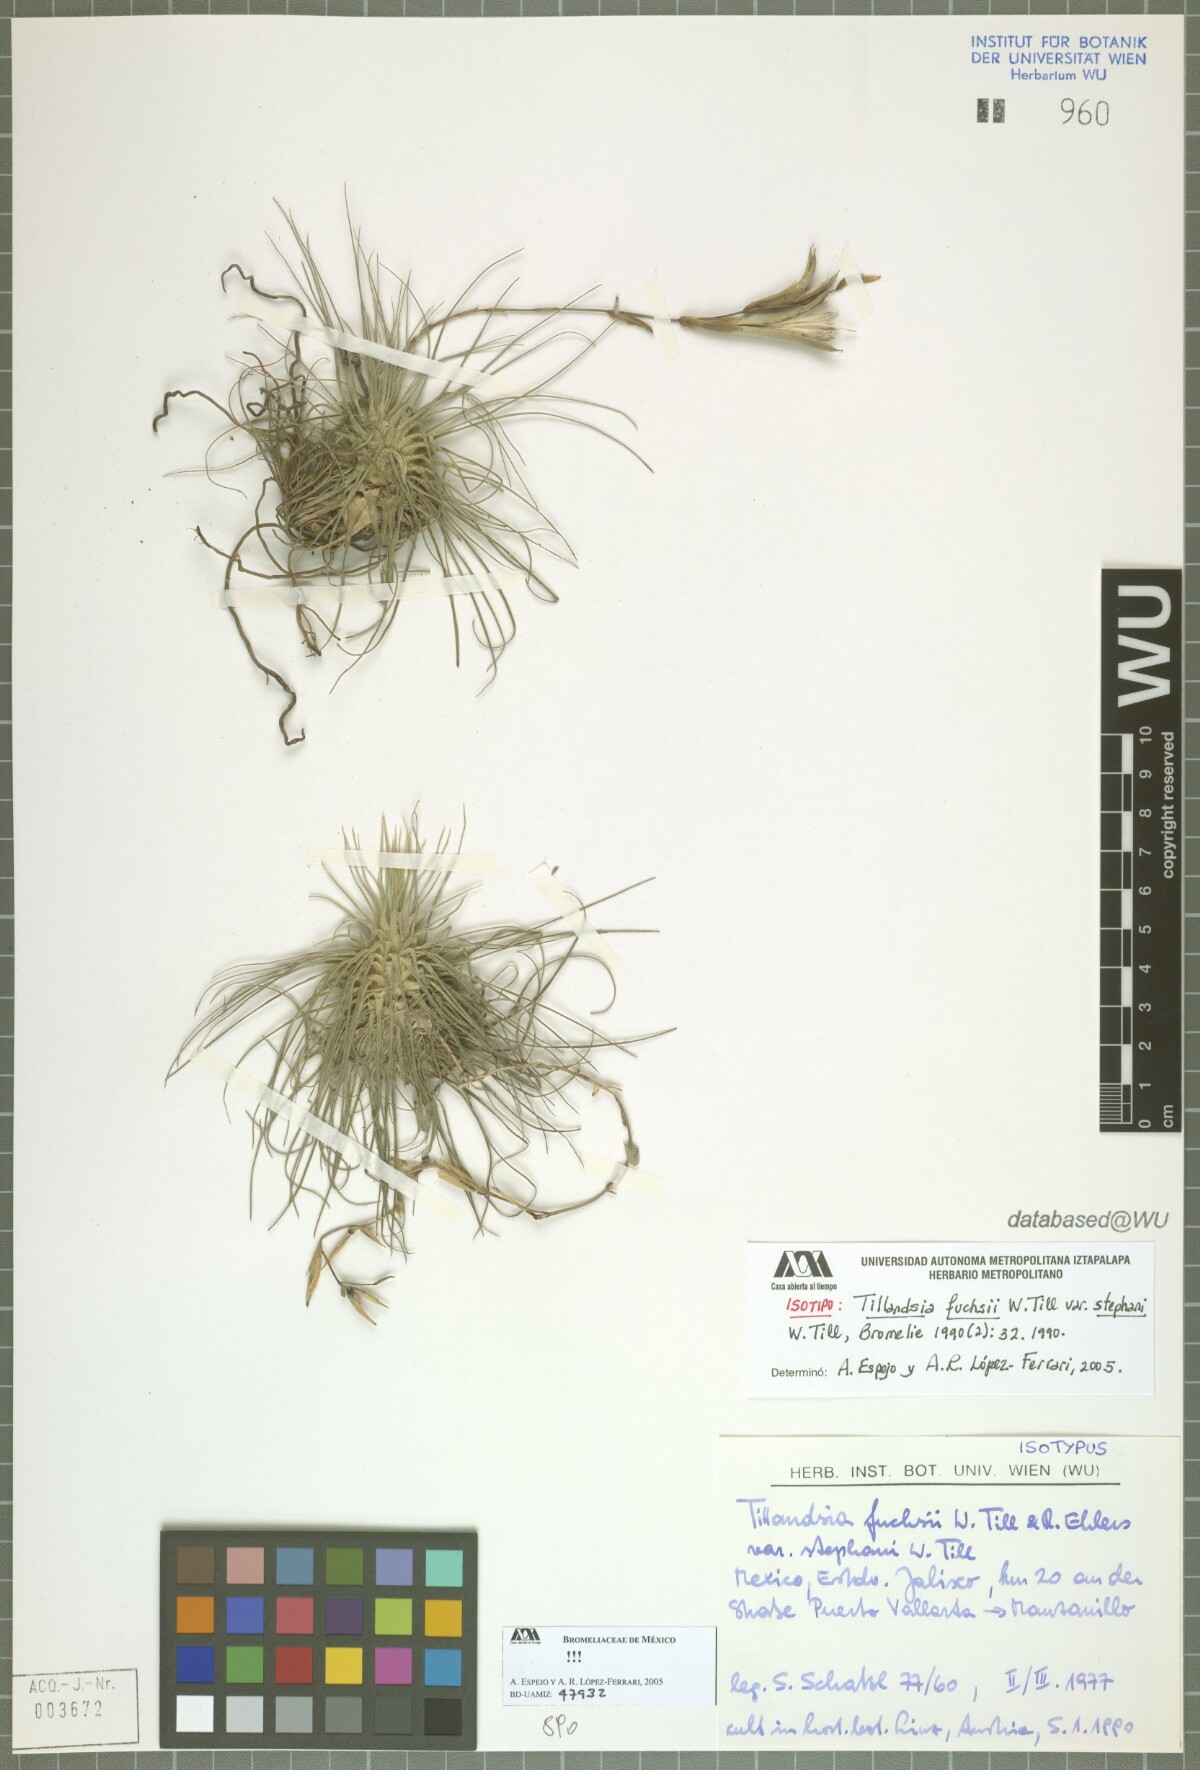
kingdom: Plantae
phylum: Tracheophyta
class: Liliopsida
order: Poales
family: Bromeliaceae
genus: Tillandsia
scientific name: Tillandsia fuchsii
